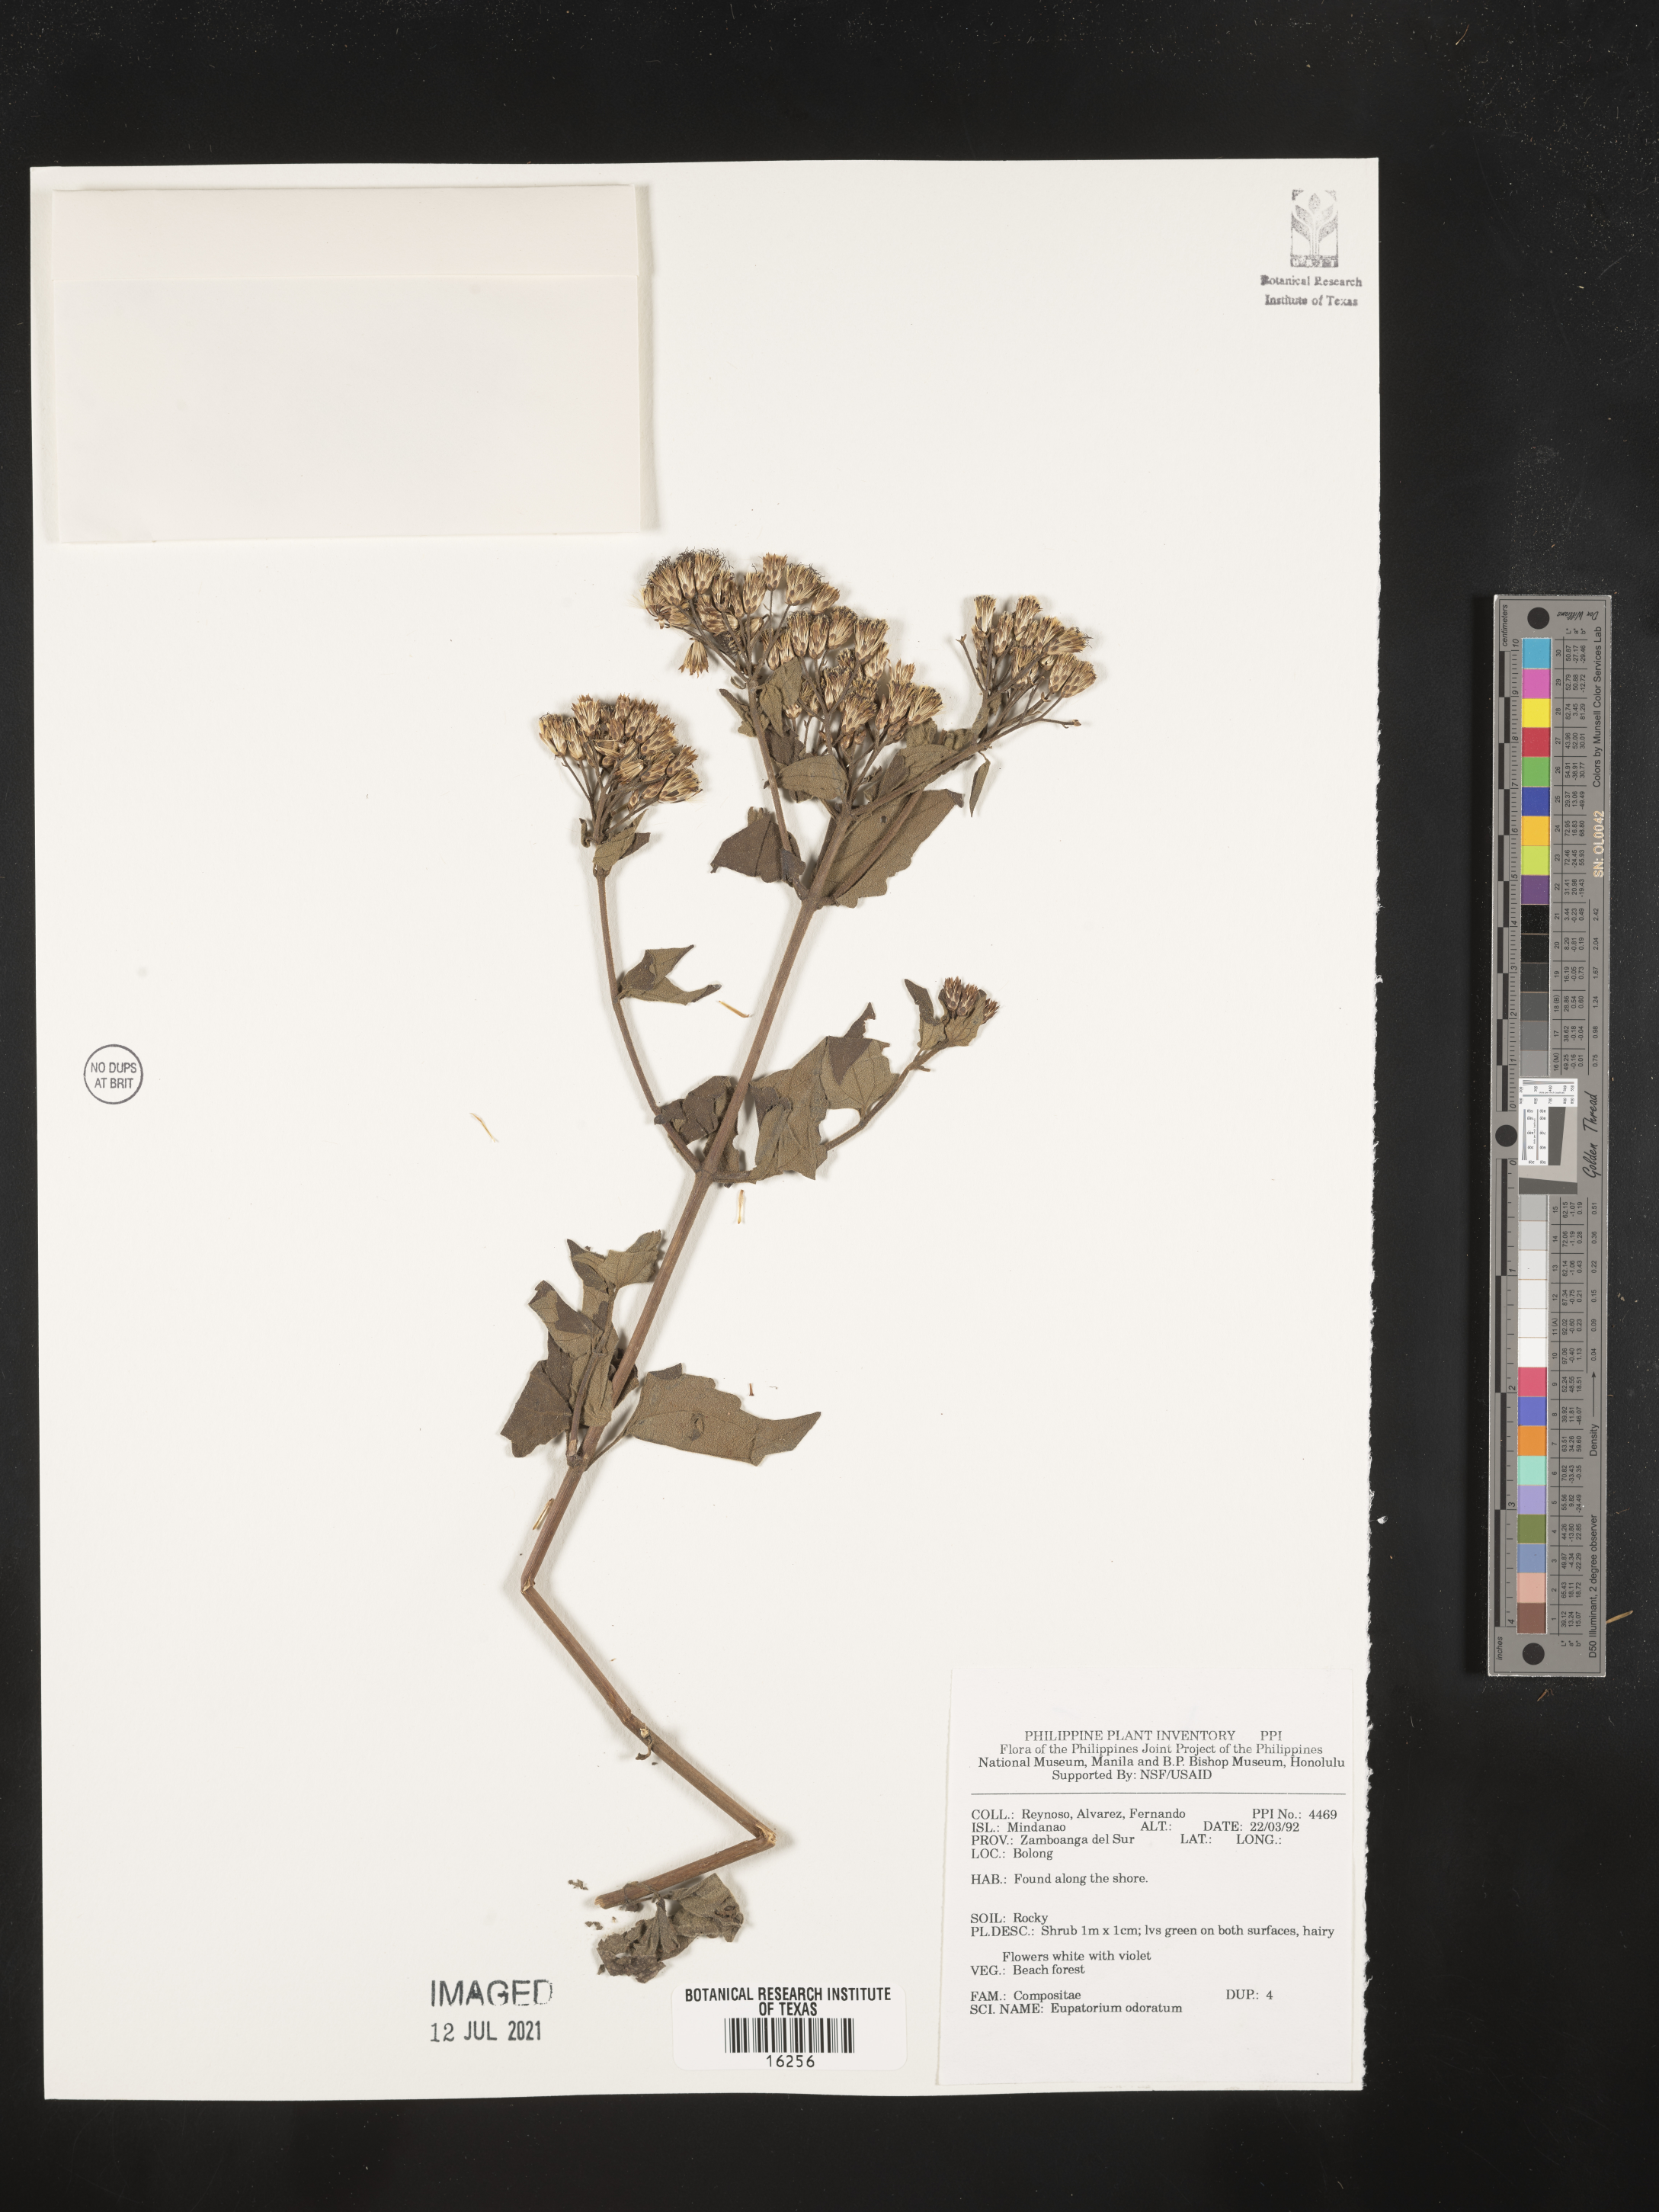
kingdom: Plantae
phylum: Tracheophyta
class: Magnoliopsida
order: Asterales
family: Asteraceae
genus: Ageratina
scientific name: Ageratina altissima
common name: White snakeroot
